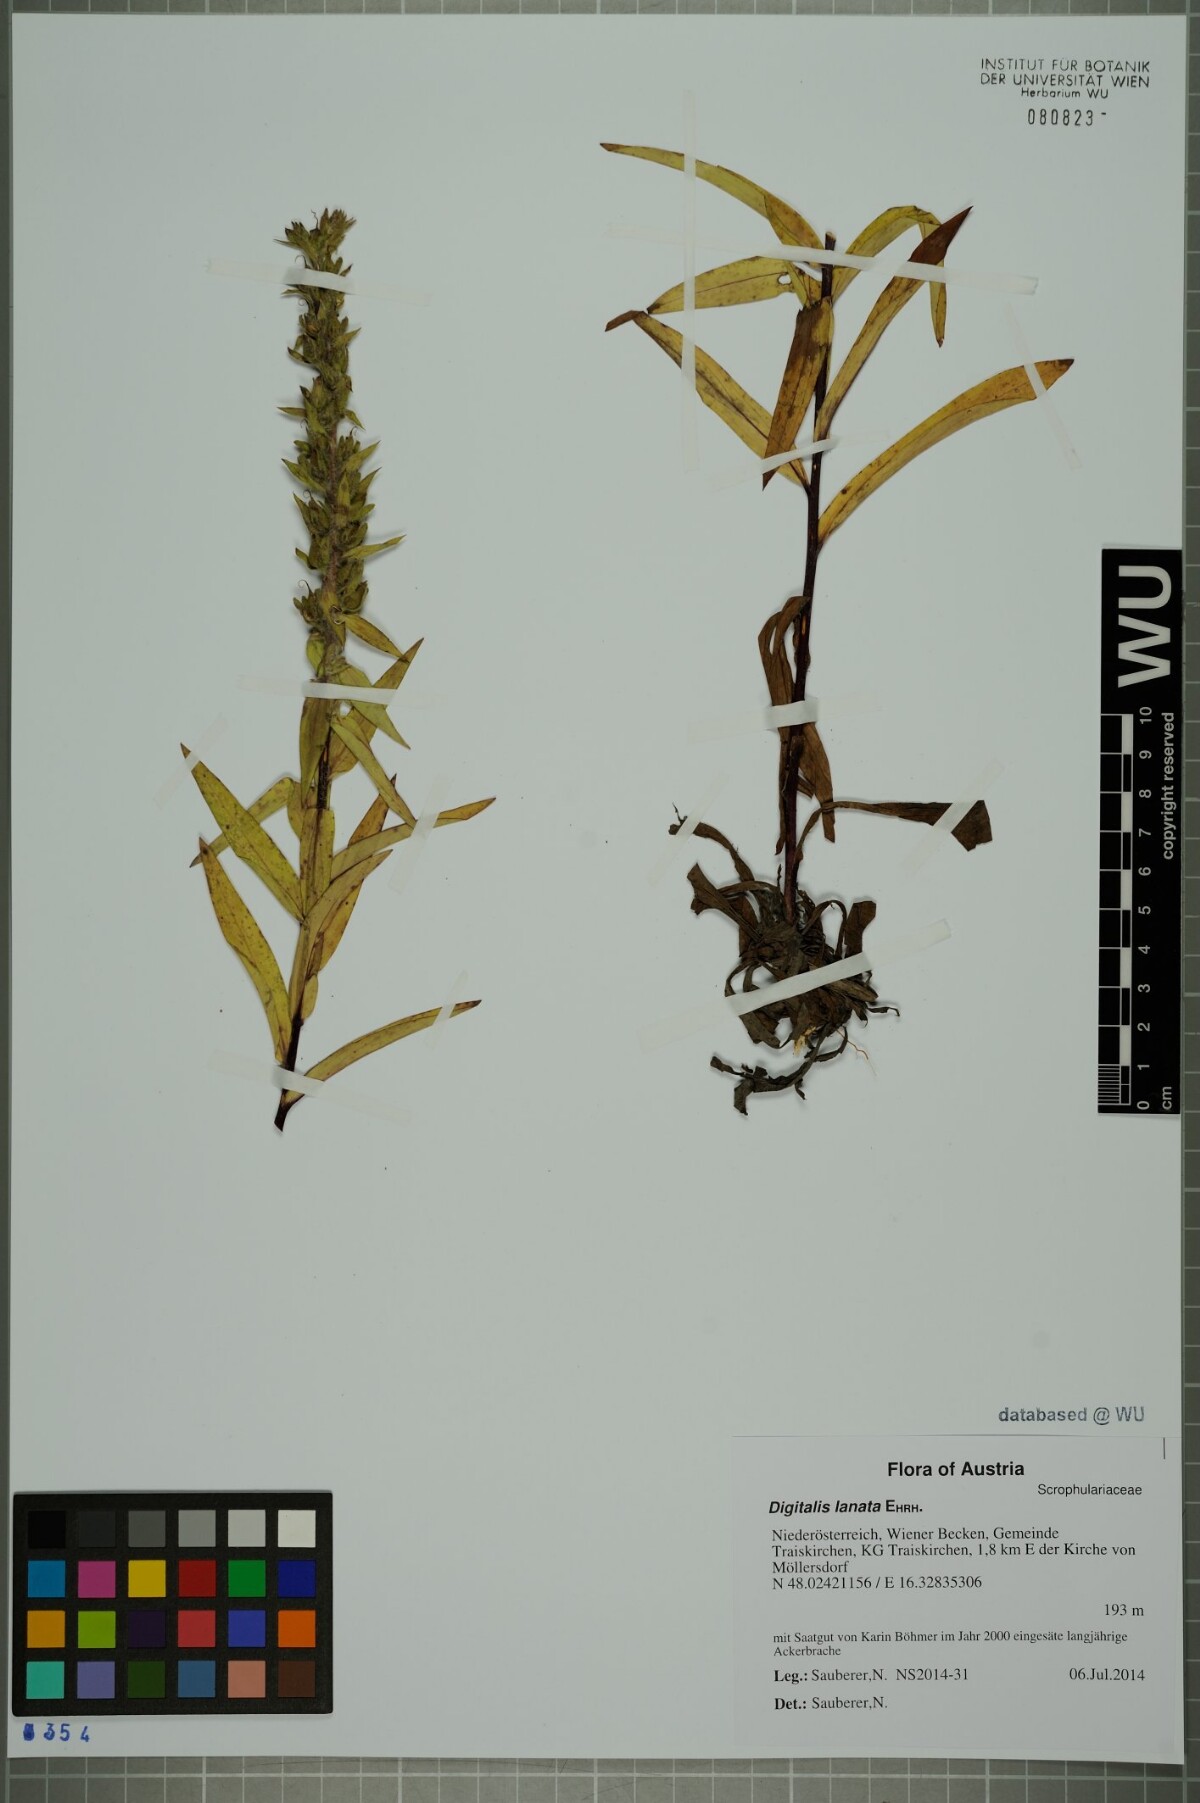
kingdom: Plantae
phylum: Tracheophyta
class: Magnoliopsida
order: Lamiales
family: Plantaginaceae
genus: Digitalis
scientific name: Digitalis lanata
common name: Grecian foxglove
